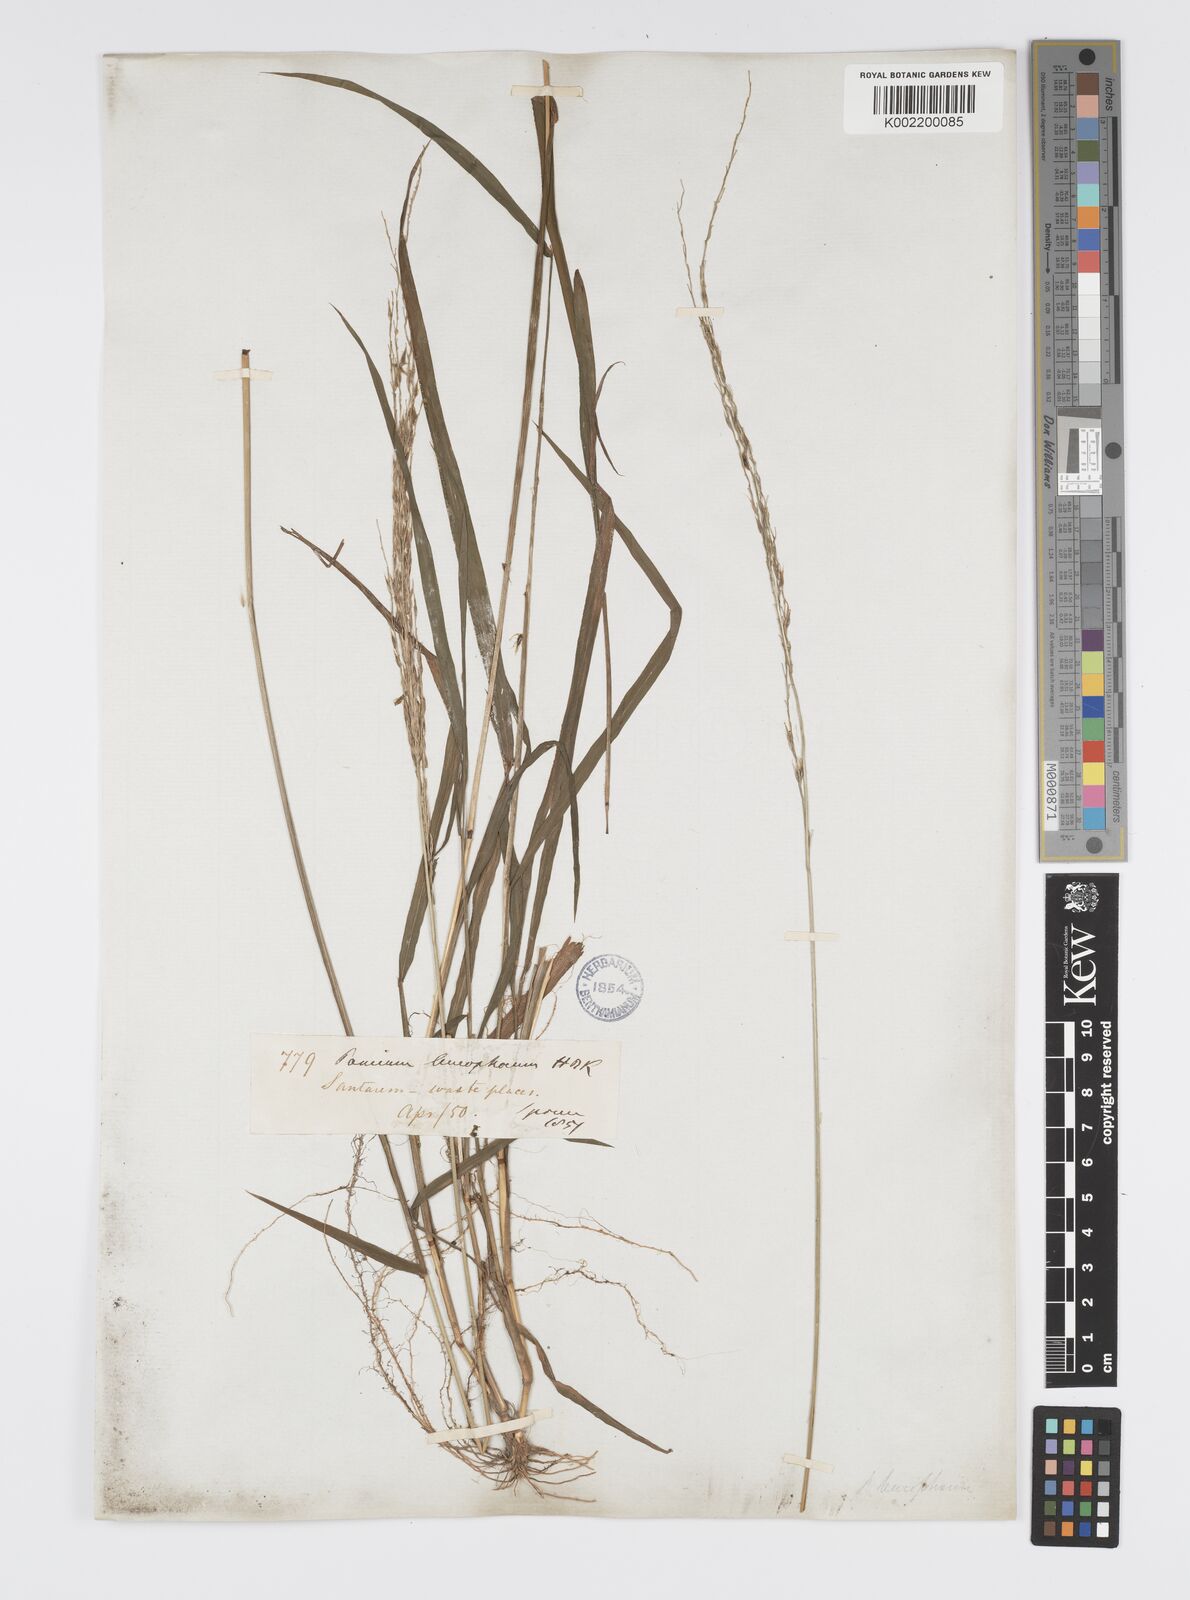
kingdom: Plantae
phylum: Tracheophyta
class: Liliopsida
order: Poales
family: Poaceae
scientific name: Poaceae
